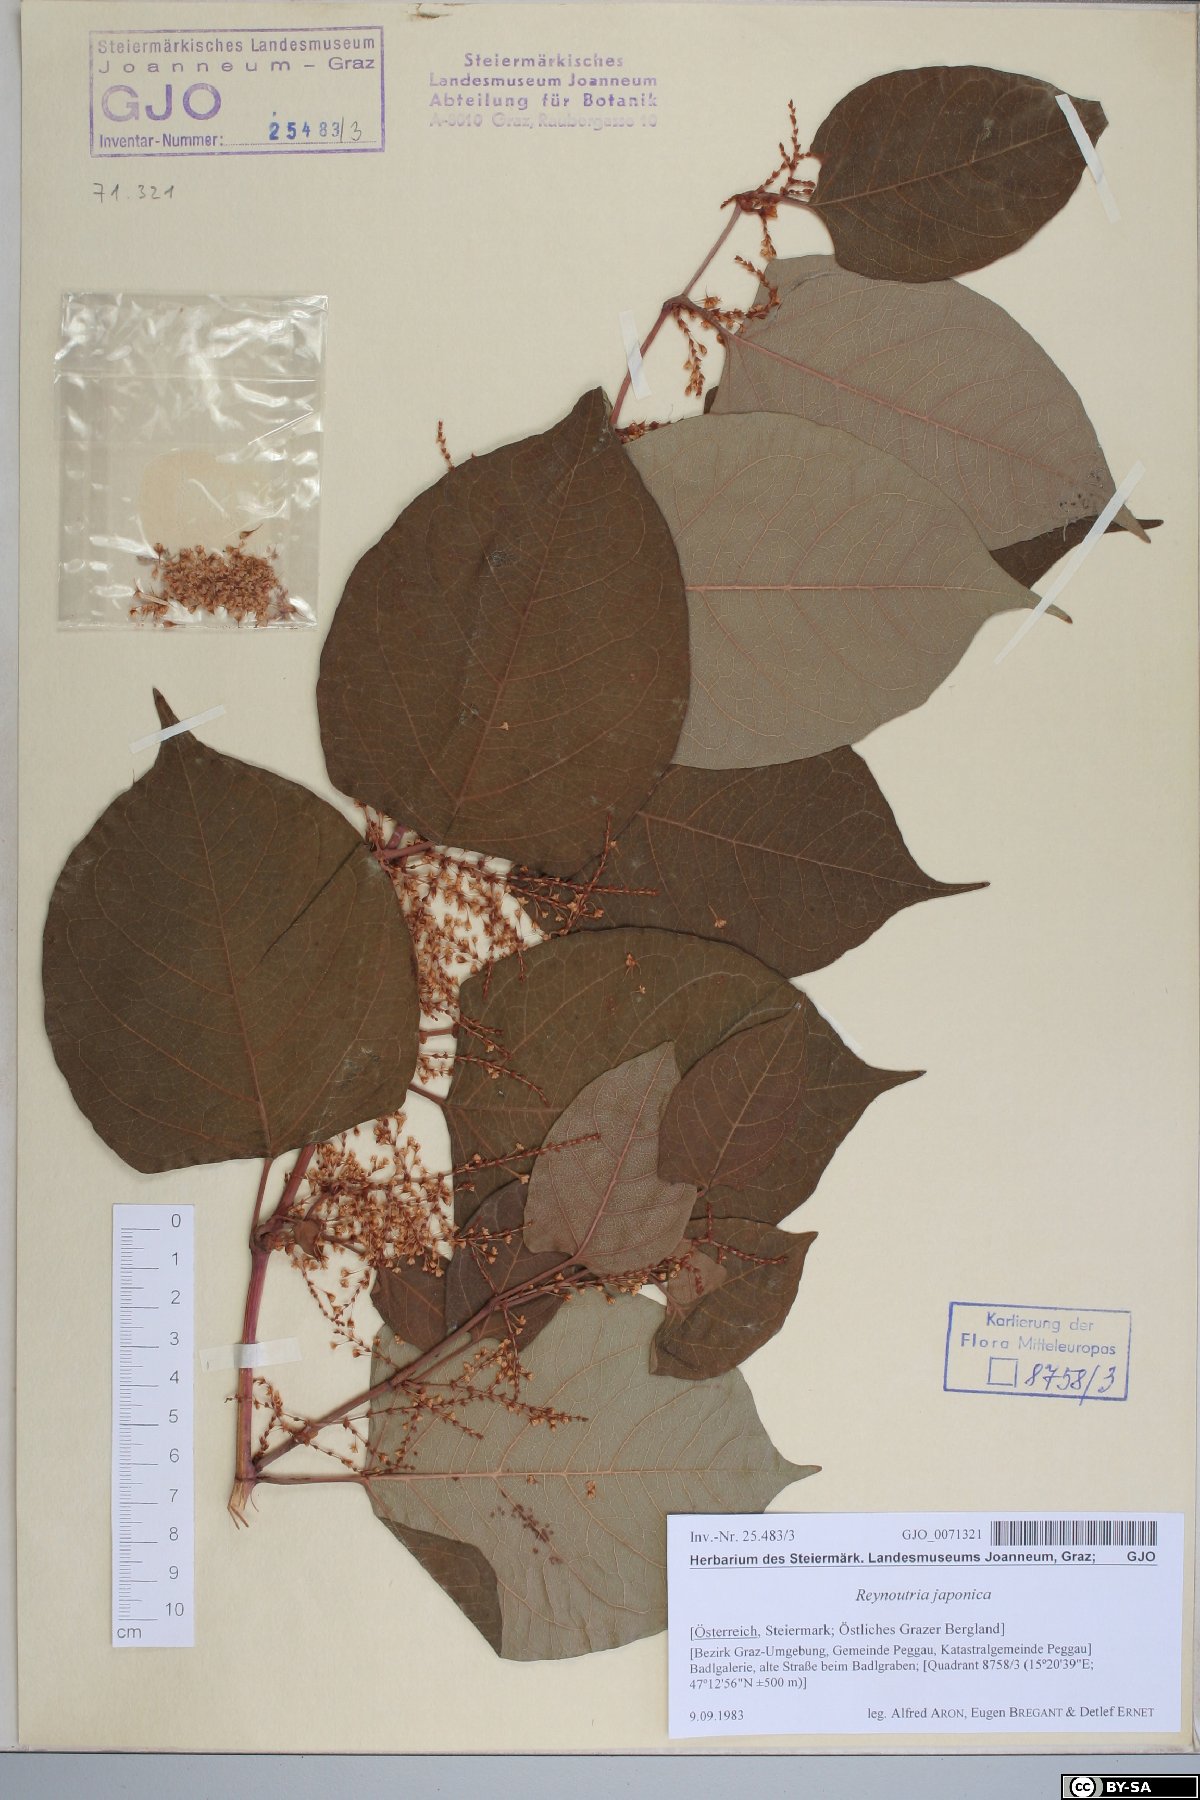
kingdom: Plantae
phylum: Tracheophyta
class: Magnoliopsida
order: Caryophyllales
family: Polygonaceae
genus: Reynoutria
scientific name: Reynoutria japonica
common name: Japanese knotweed
